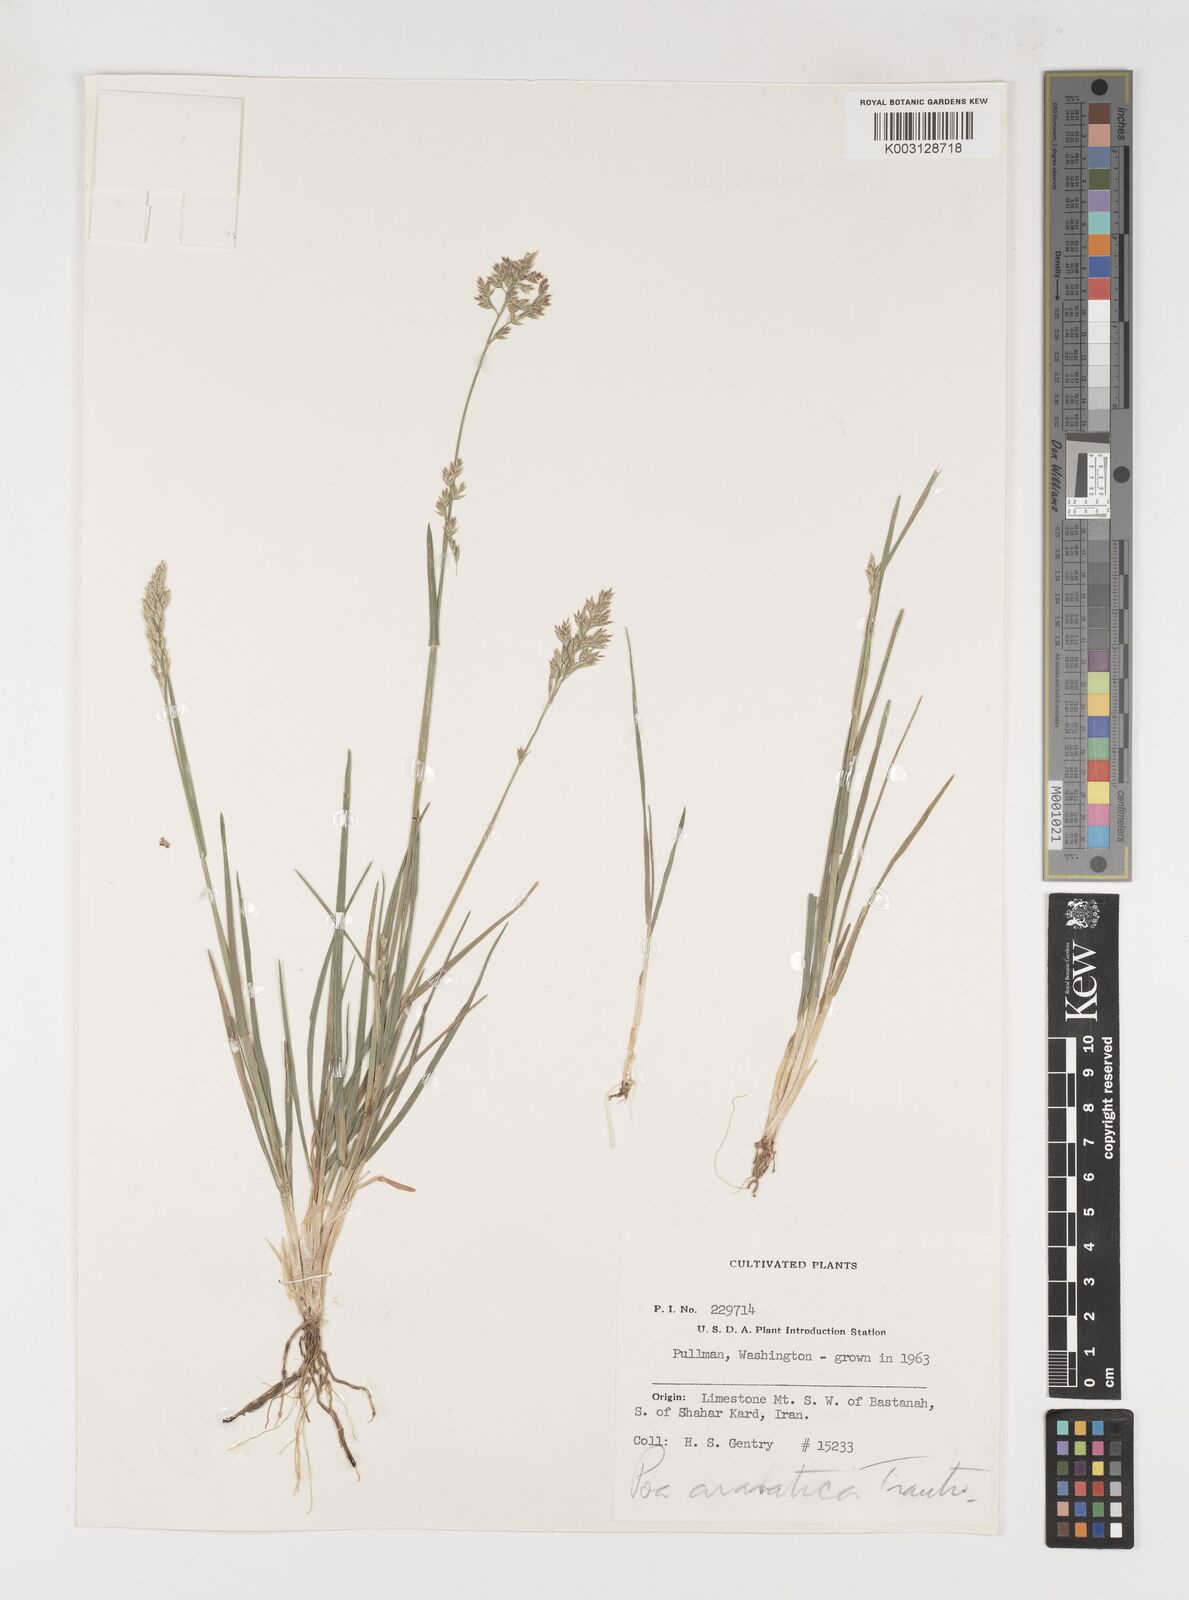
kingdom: Plantae
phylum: Tracheophyta
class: Liliopsida
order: Poales
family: Poaceae
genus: Poa
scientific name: Poa araratica
